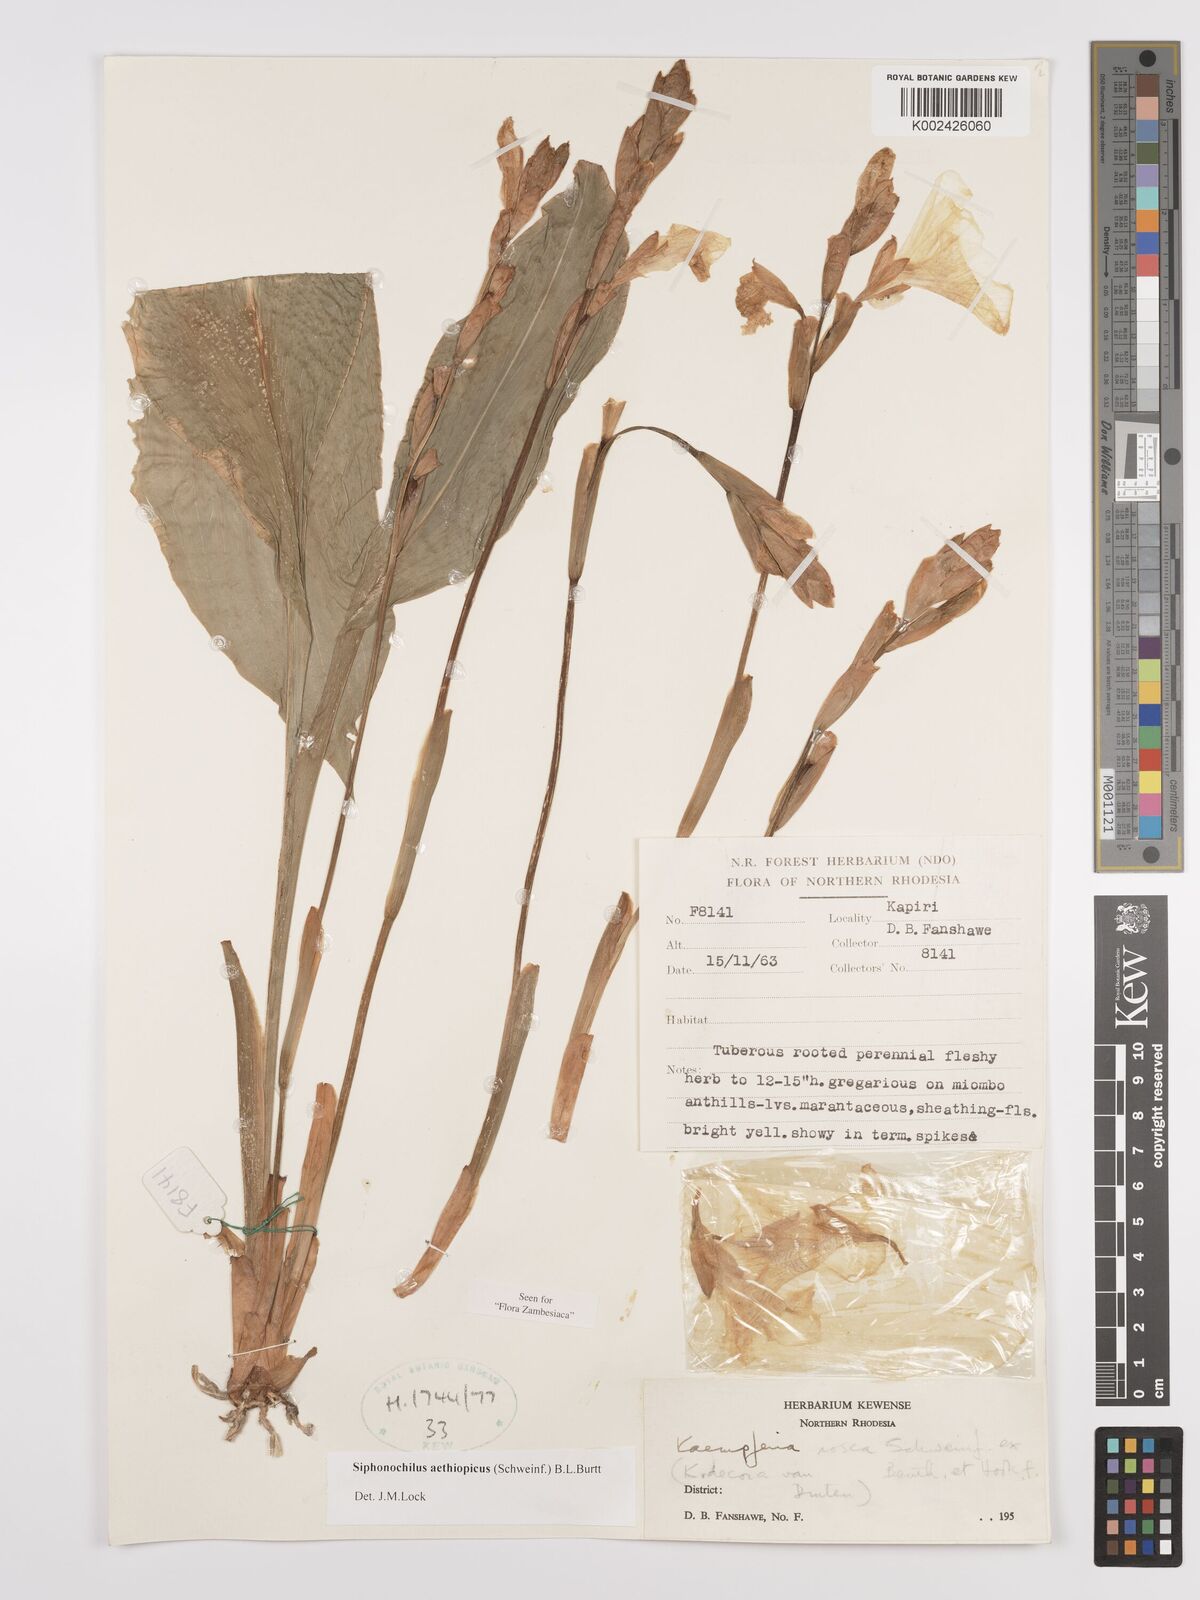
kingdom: Plantae
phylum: Tracheophyta
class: Liliopsida
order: Zingiberales
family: Zingiberaceae
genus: Siphonochilus
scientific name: Siphonochilus kirkii
